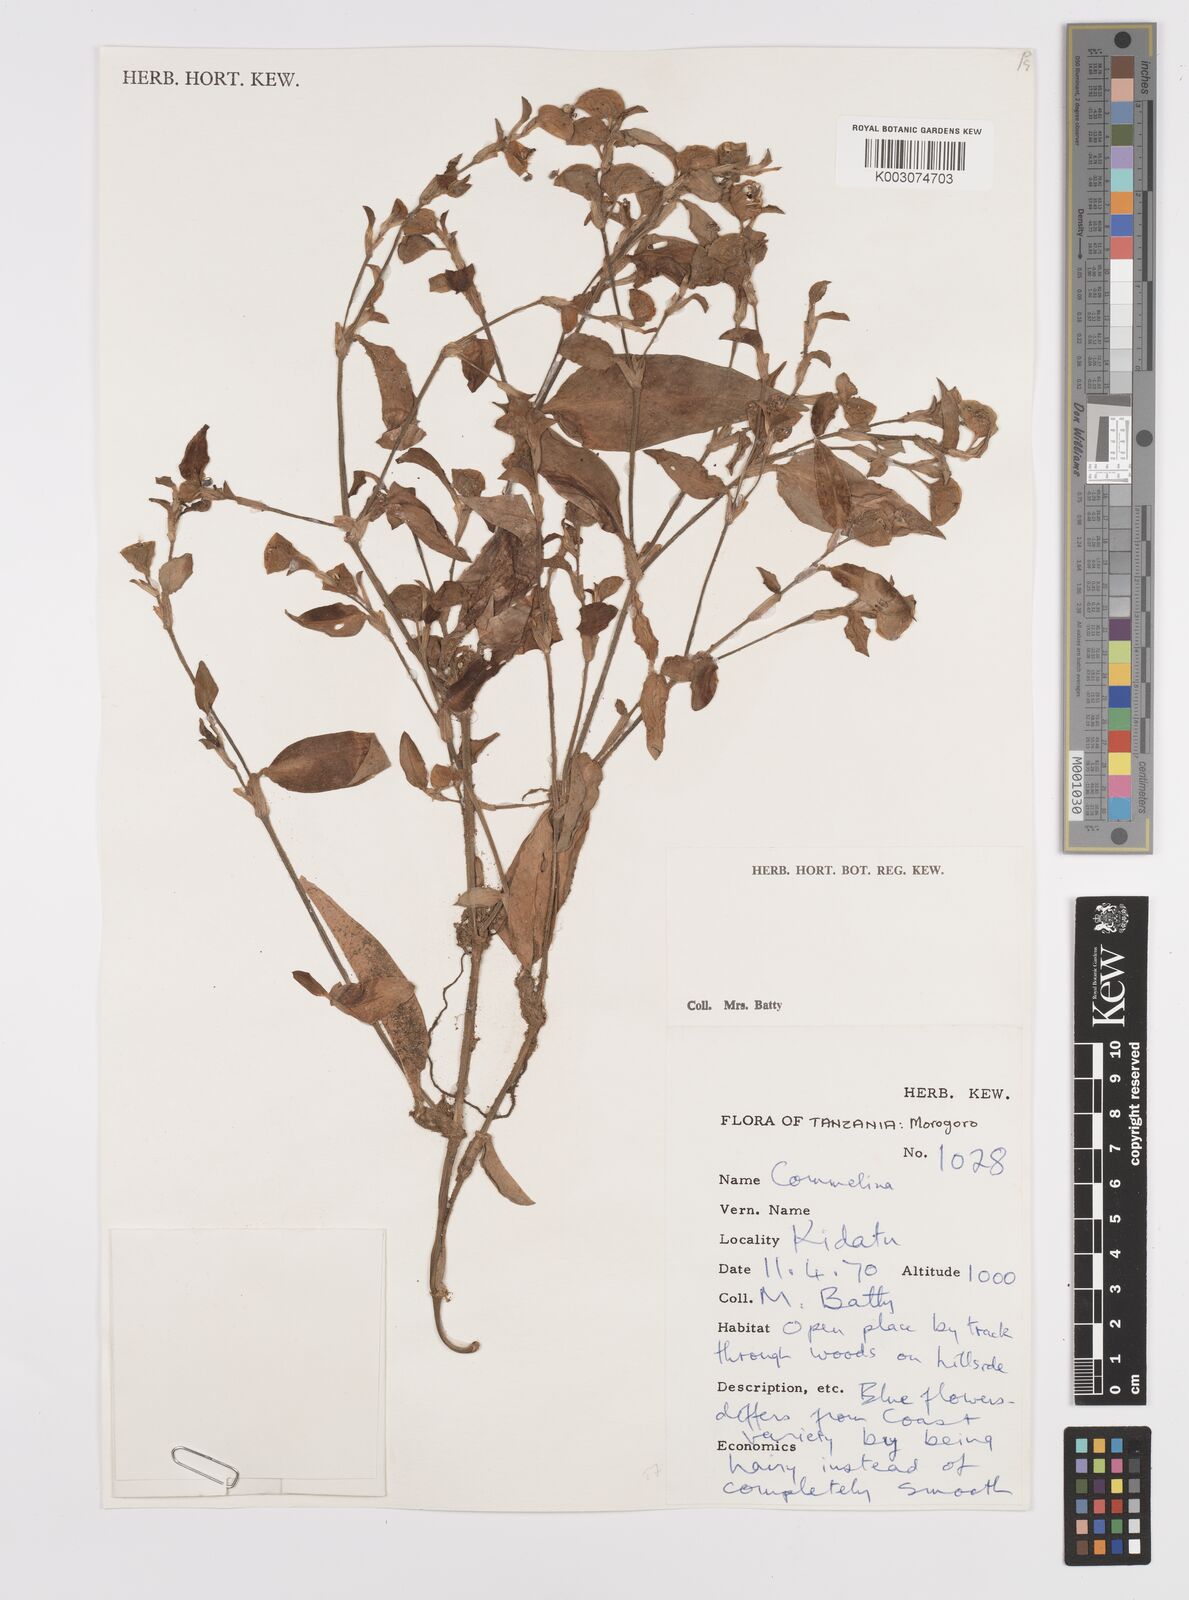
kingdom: Plantae
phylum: Tracheophyta
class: Liliopsida
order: Commelinales
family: Commelinaceae
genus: Commelina
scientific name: Commelina bracteosa
